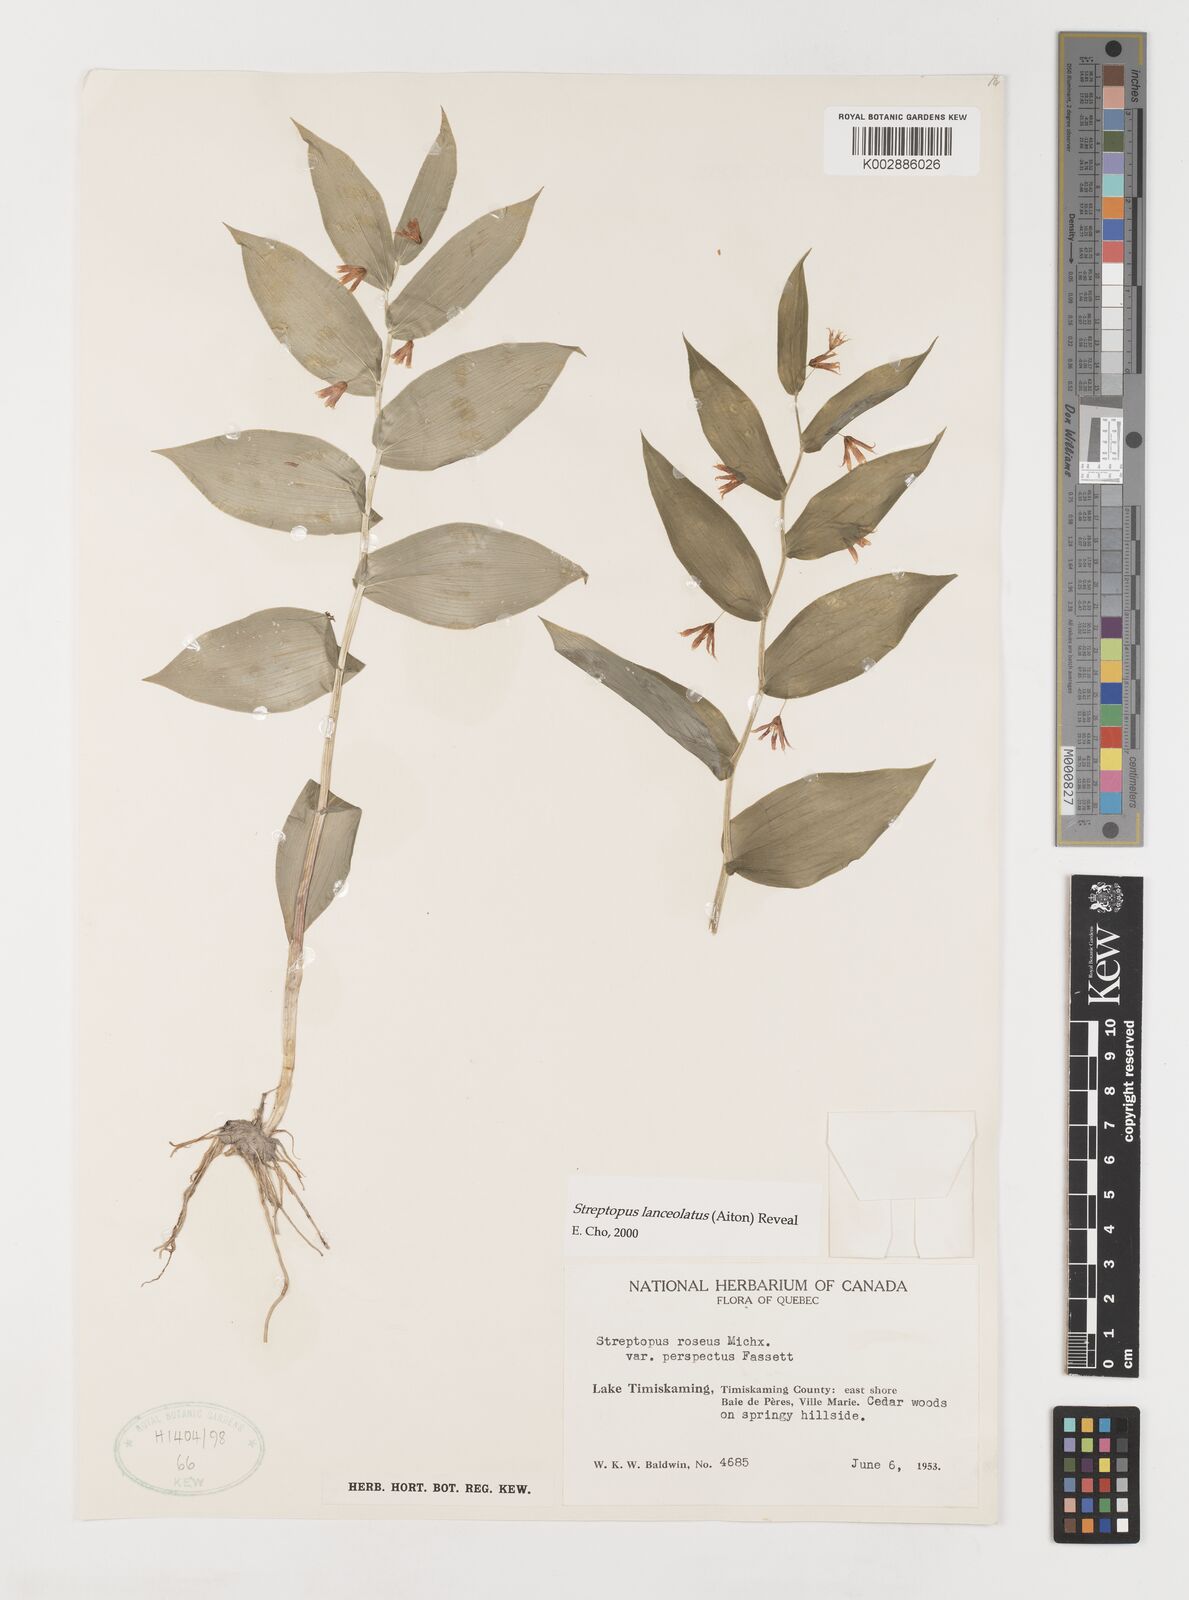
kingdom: Plantae
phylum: Tracheophyta
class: Liliopsida
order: Liliales
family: Liliaceae
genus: Streptopus
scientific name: Streptopus lanceolatus
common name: Rose mandarin
